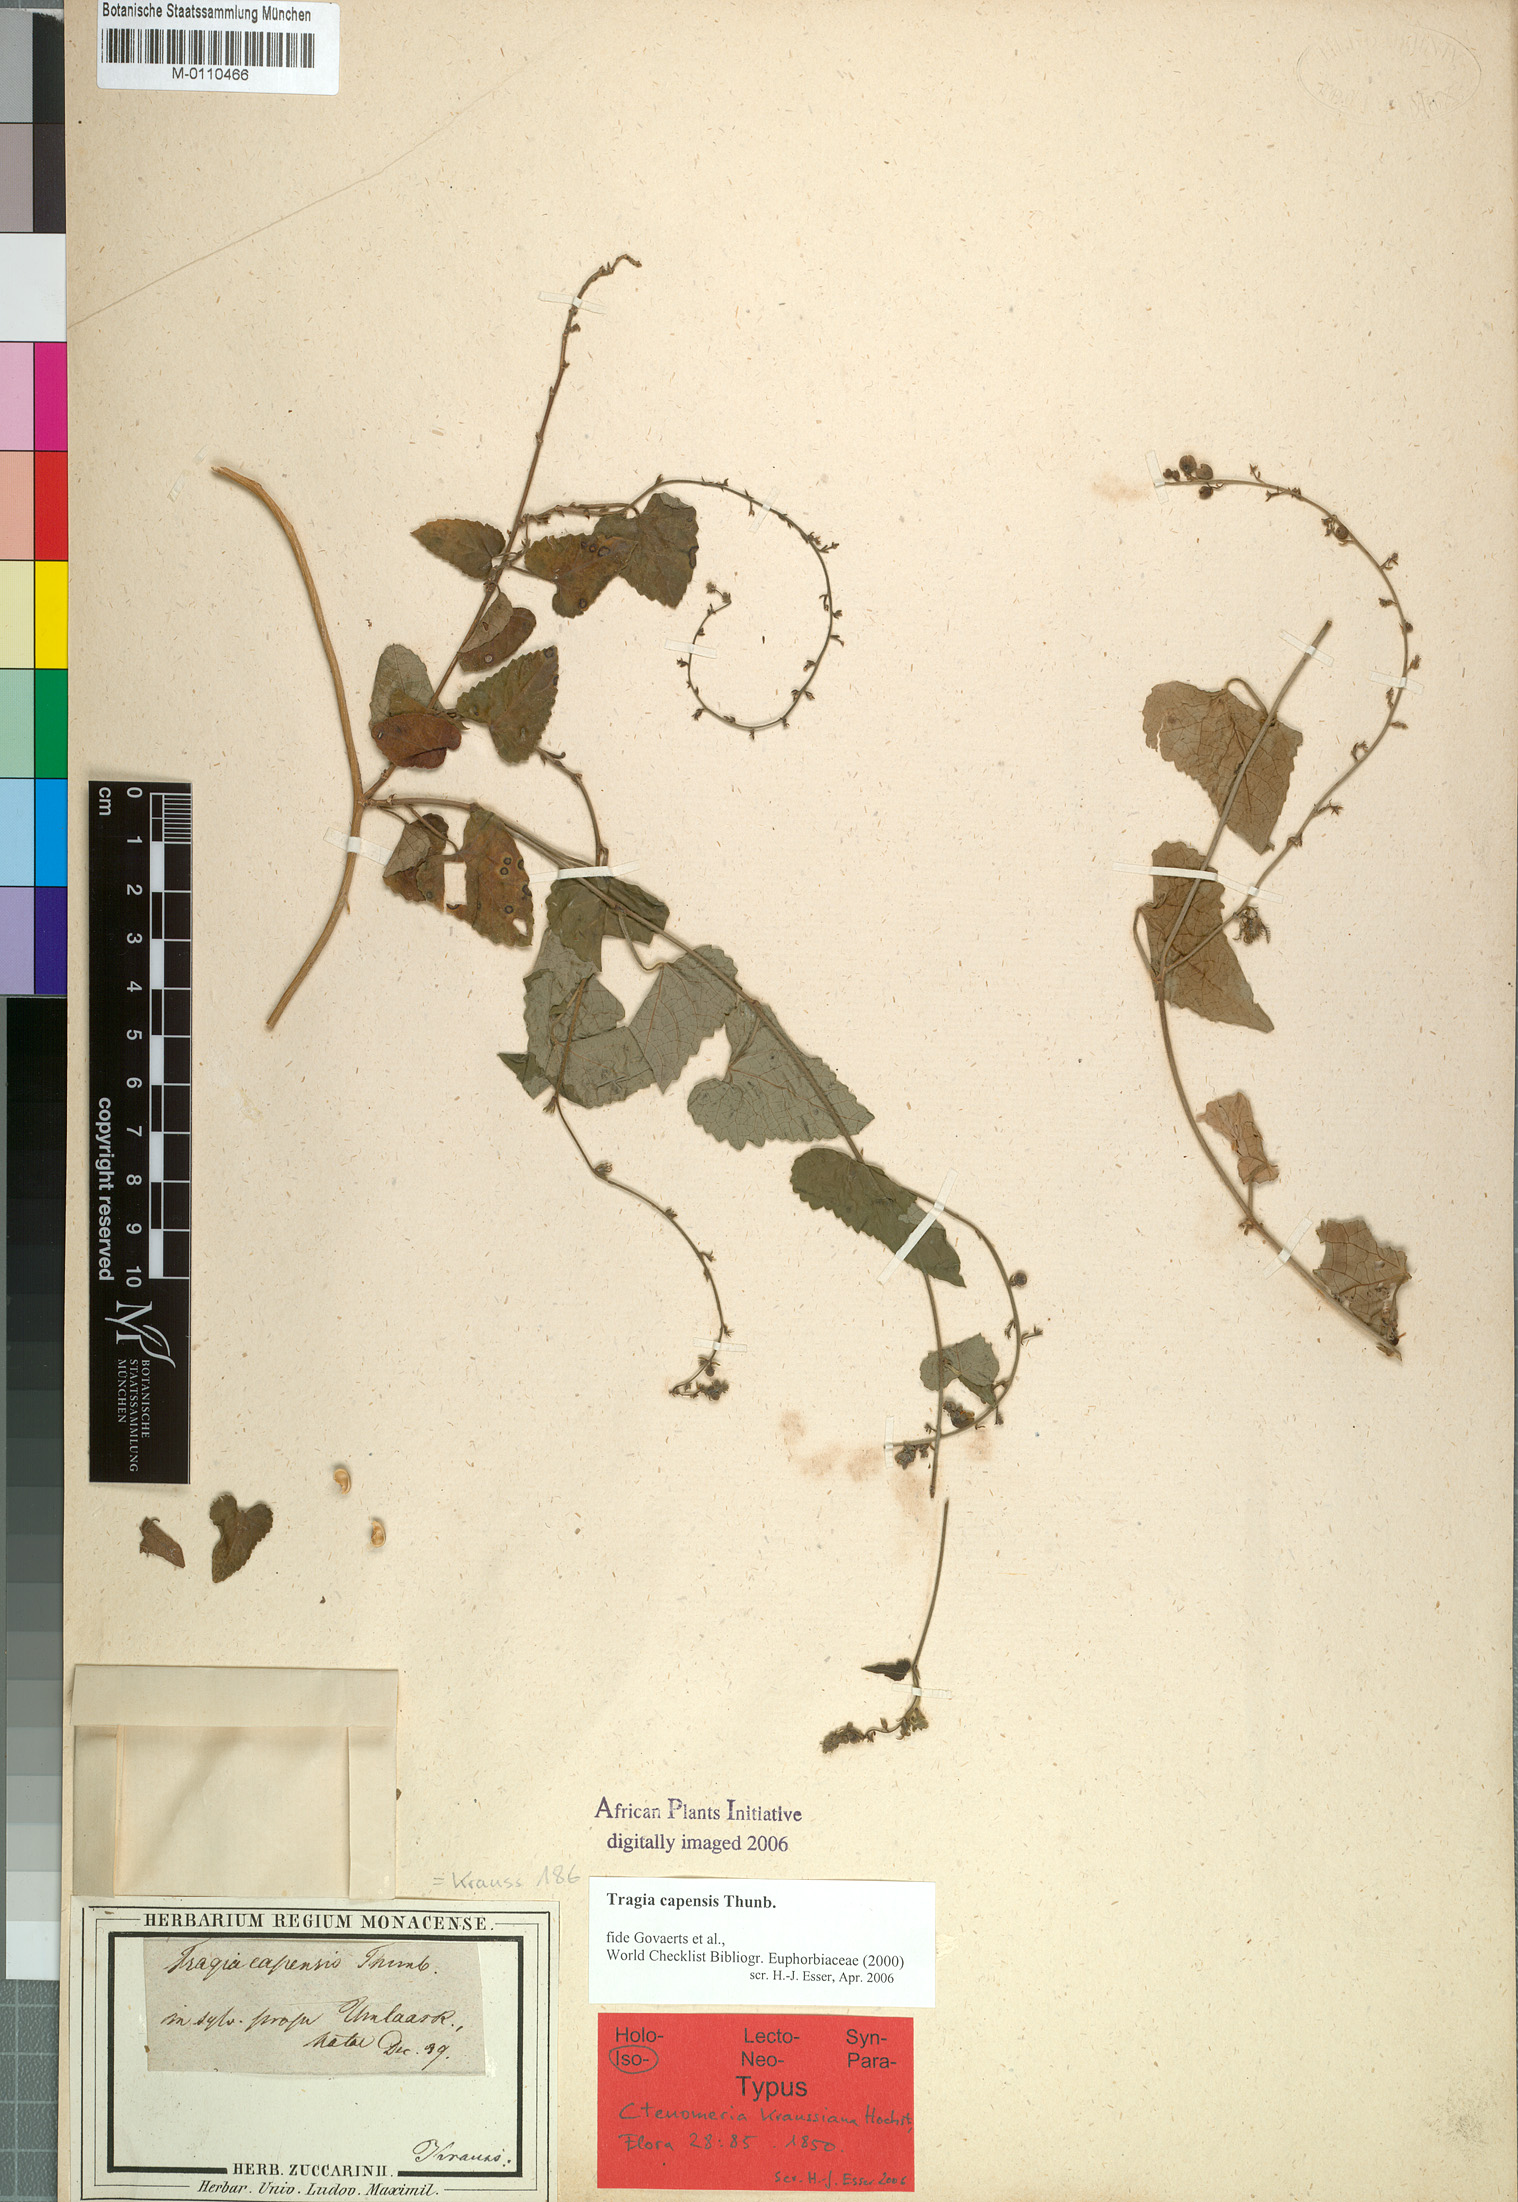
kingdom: Plantae
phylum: Tracheophyta
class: Magnoliopsida
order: Malpighiales
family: Euphorbiaceae
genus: Tragia
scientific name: Tragia capensis
